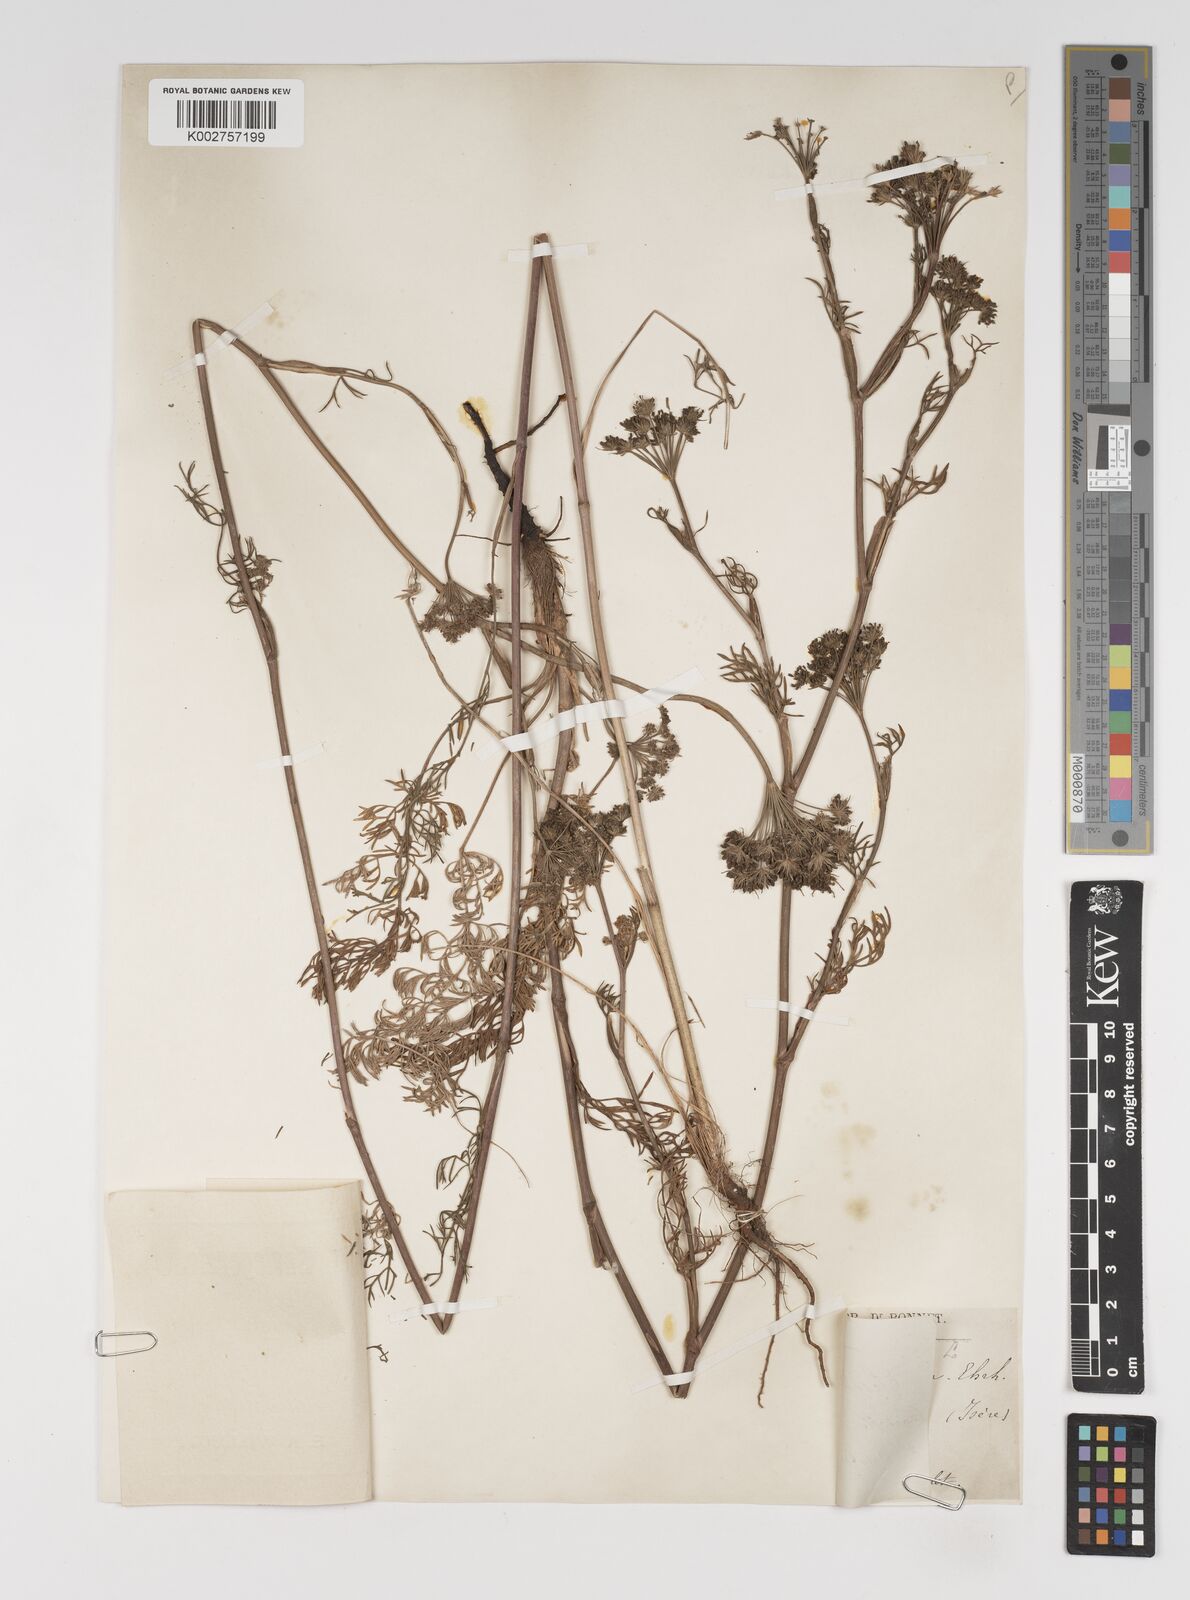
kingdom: Plantae
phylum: Tracheophyta
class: Magnoliopsida
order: Apiales
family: Apiaceae
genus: Seseli
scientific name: Seseli annuum
